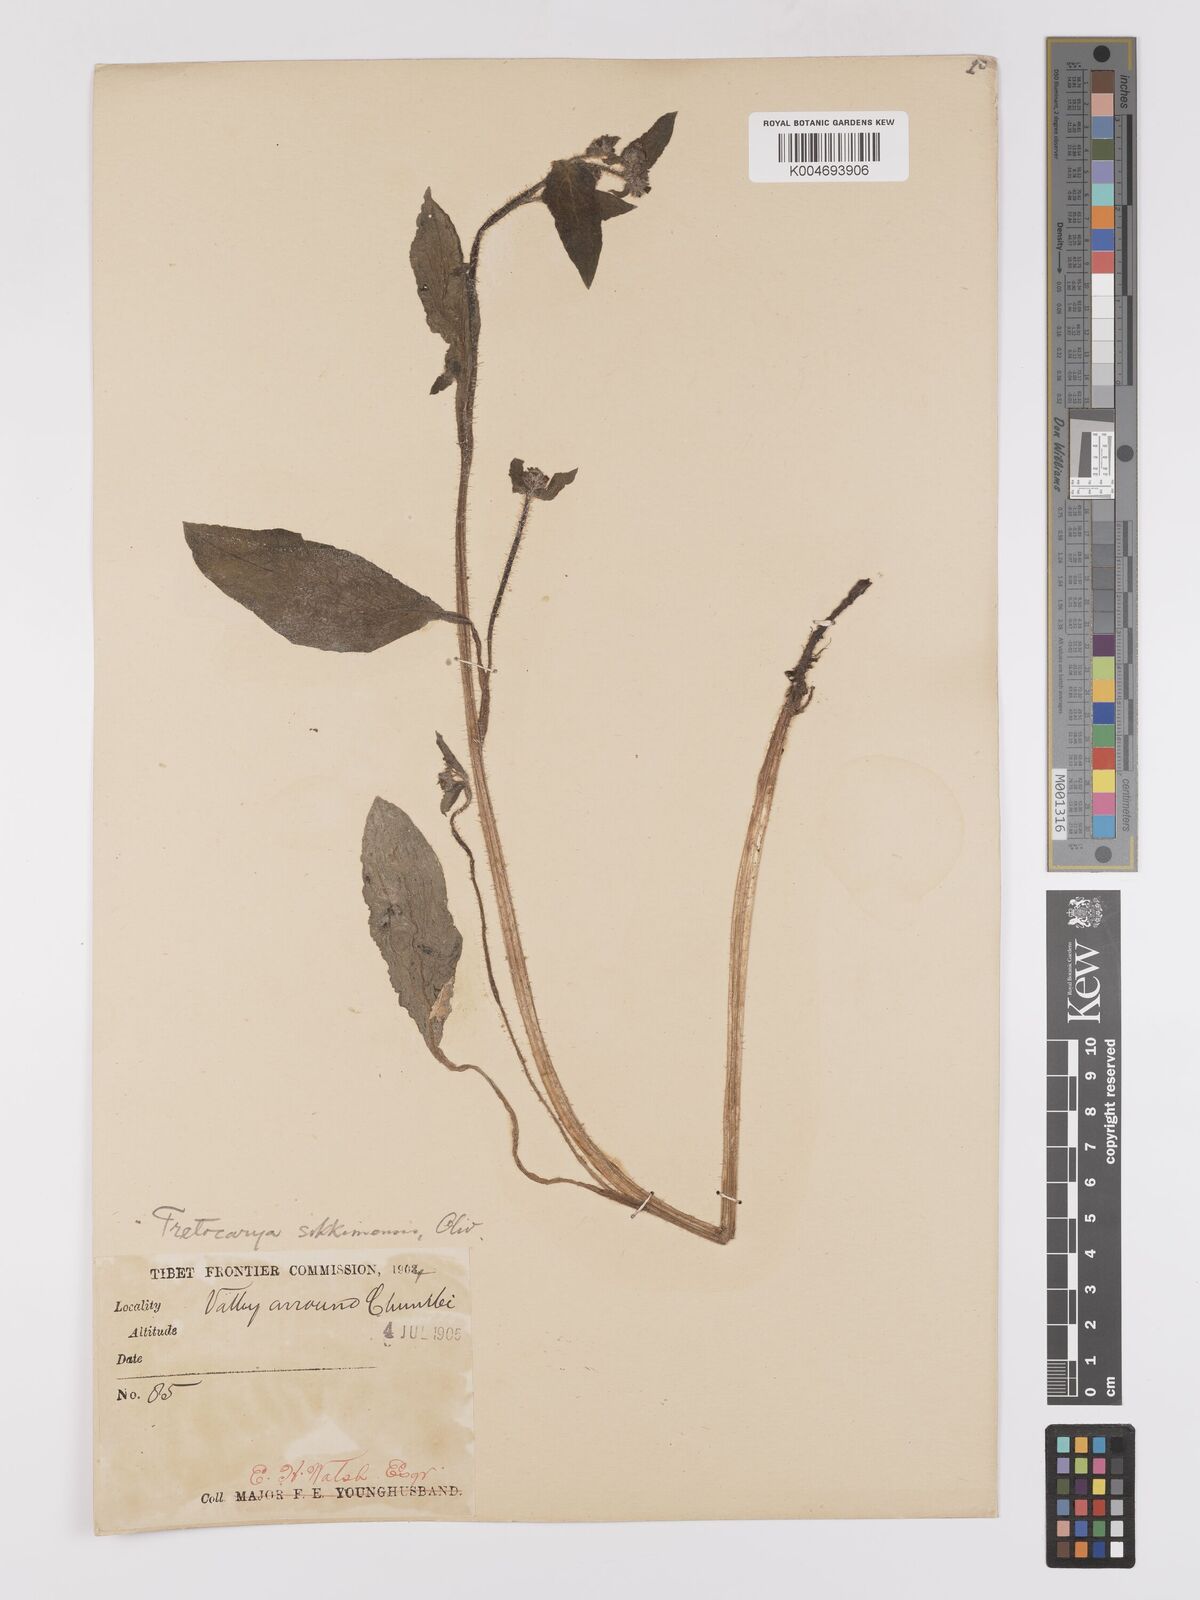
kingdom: Plantae
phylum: Tracheophyta
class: Magnoliopsida
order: Boraginales
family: Boraginaceae
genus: Microula
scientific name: Microula sikkimensis
